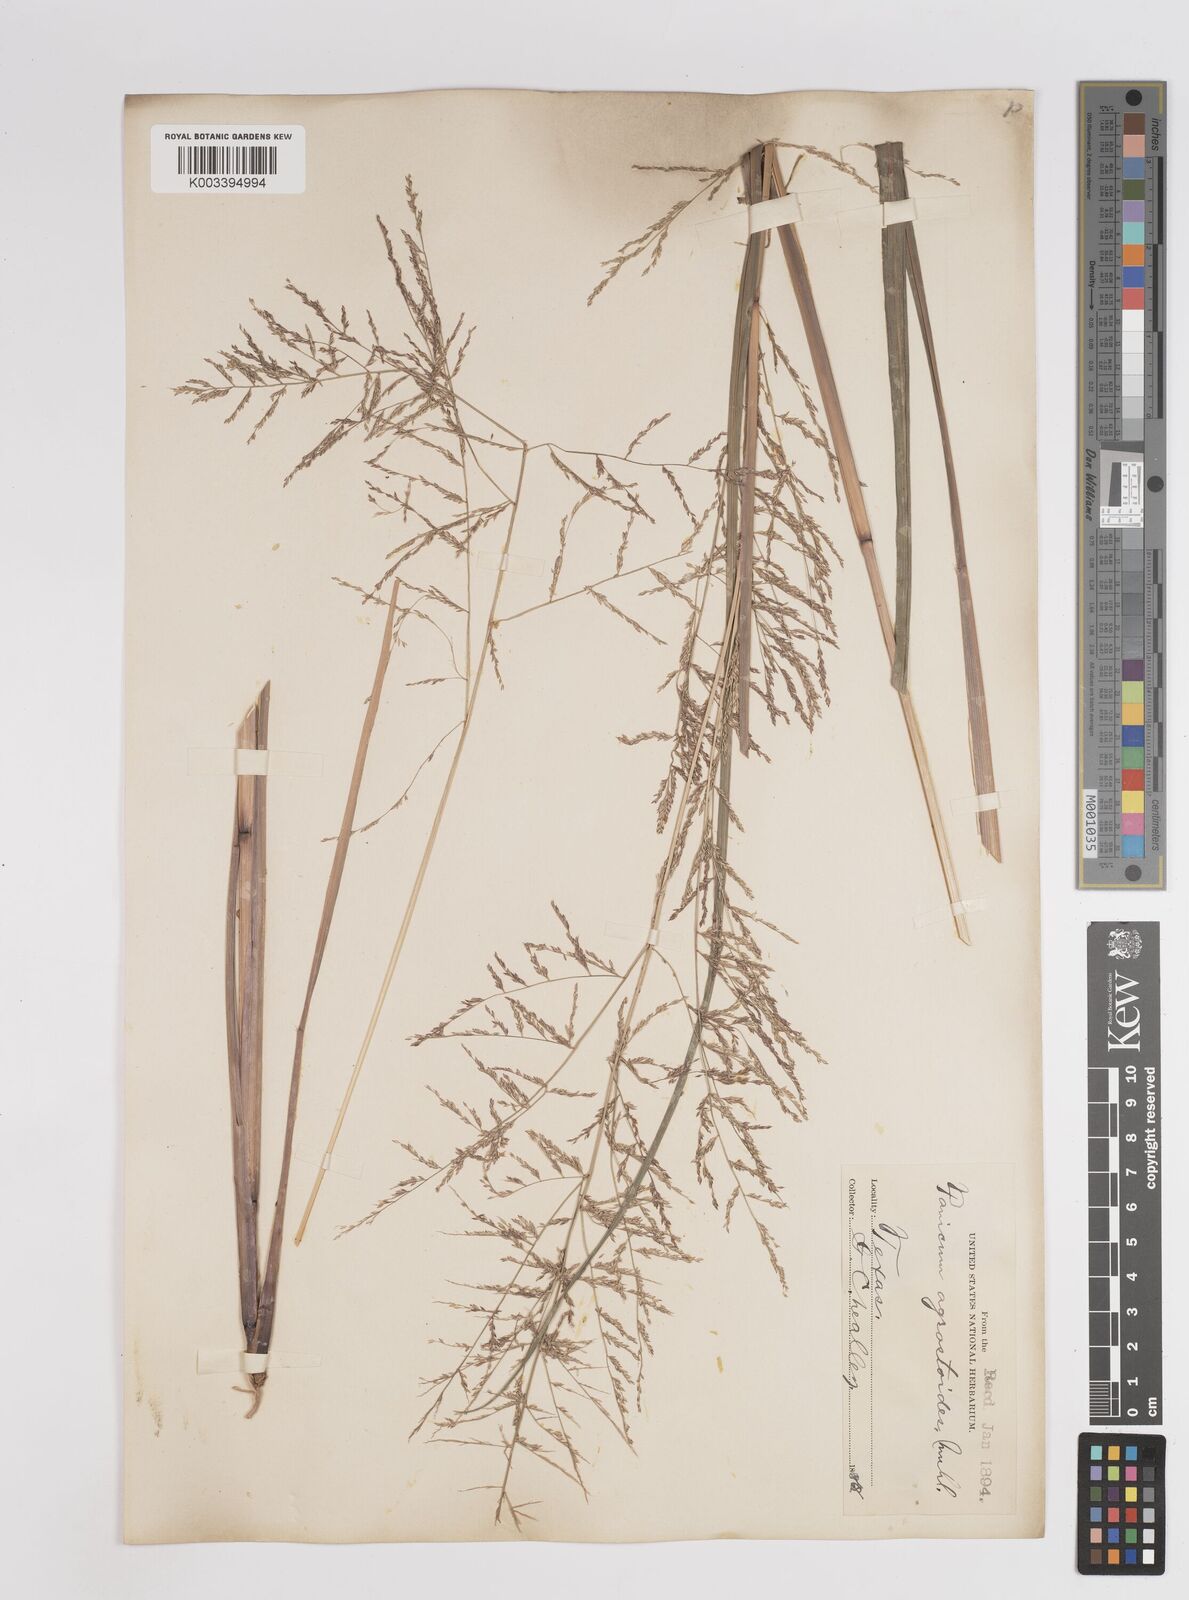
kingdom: Plantae
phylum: Tracheophyta
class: Liliopsida
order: Poales
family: Poaceae
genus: Coleataenia
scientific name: Coleataenia rigidula
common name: Redtop panicgrass
